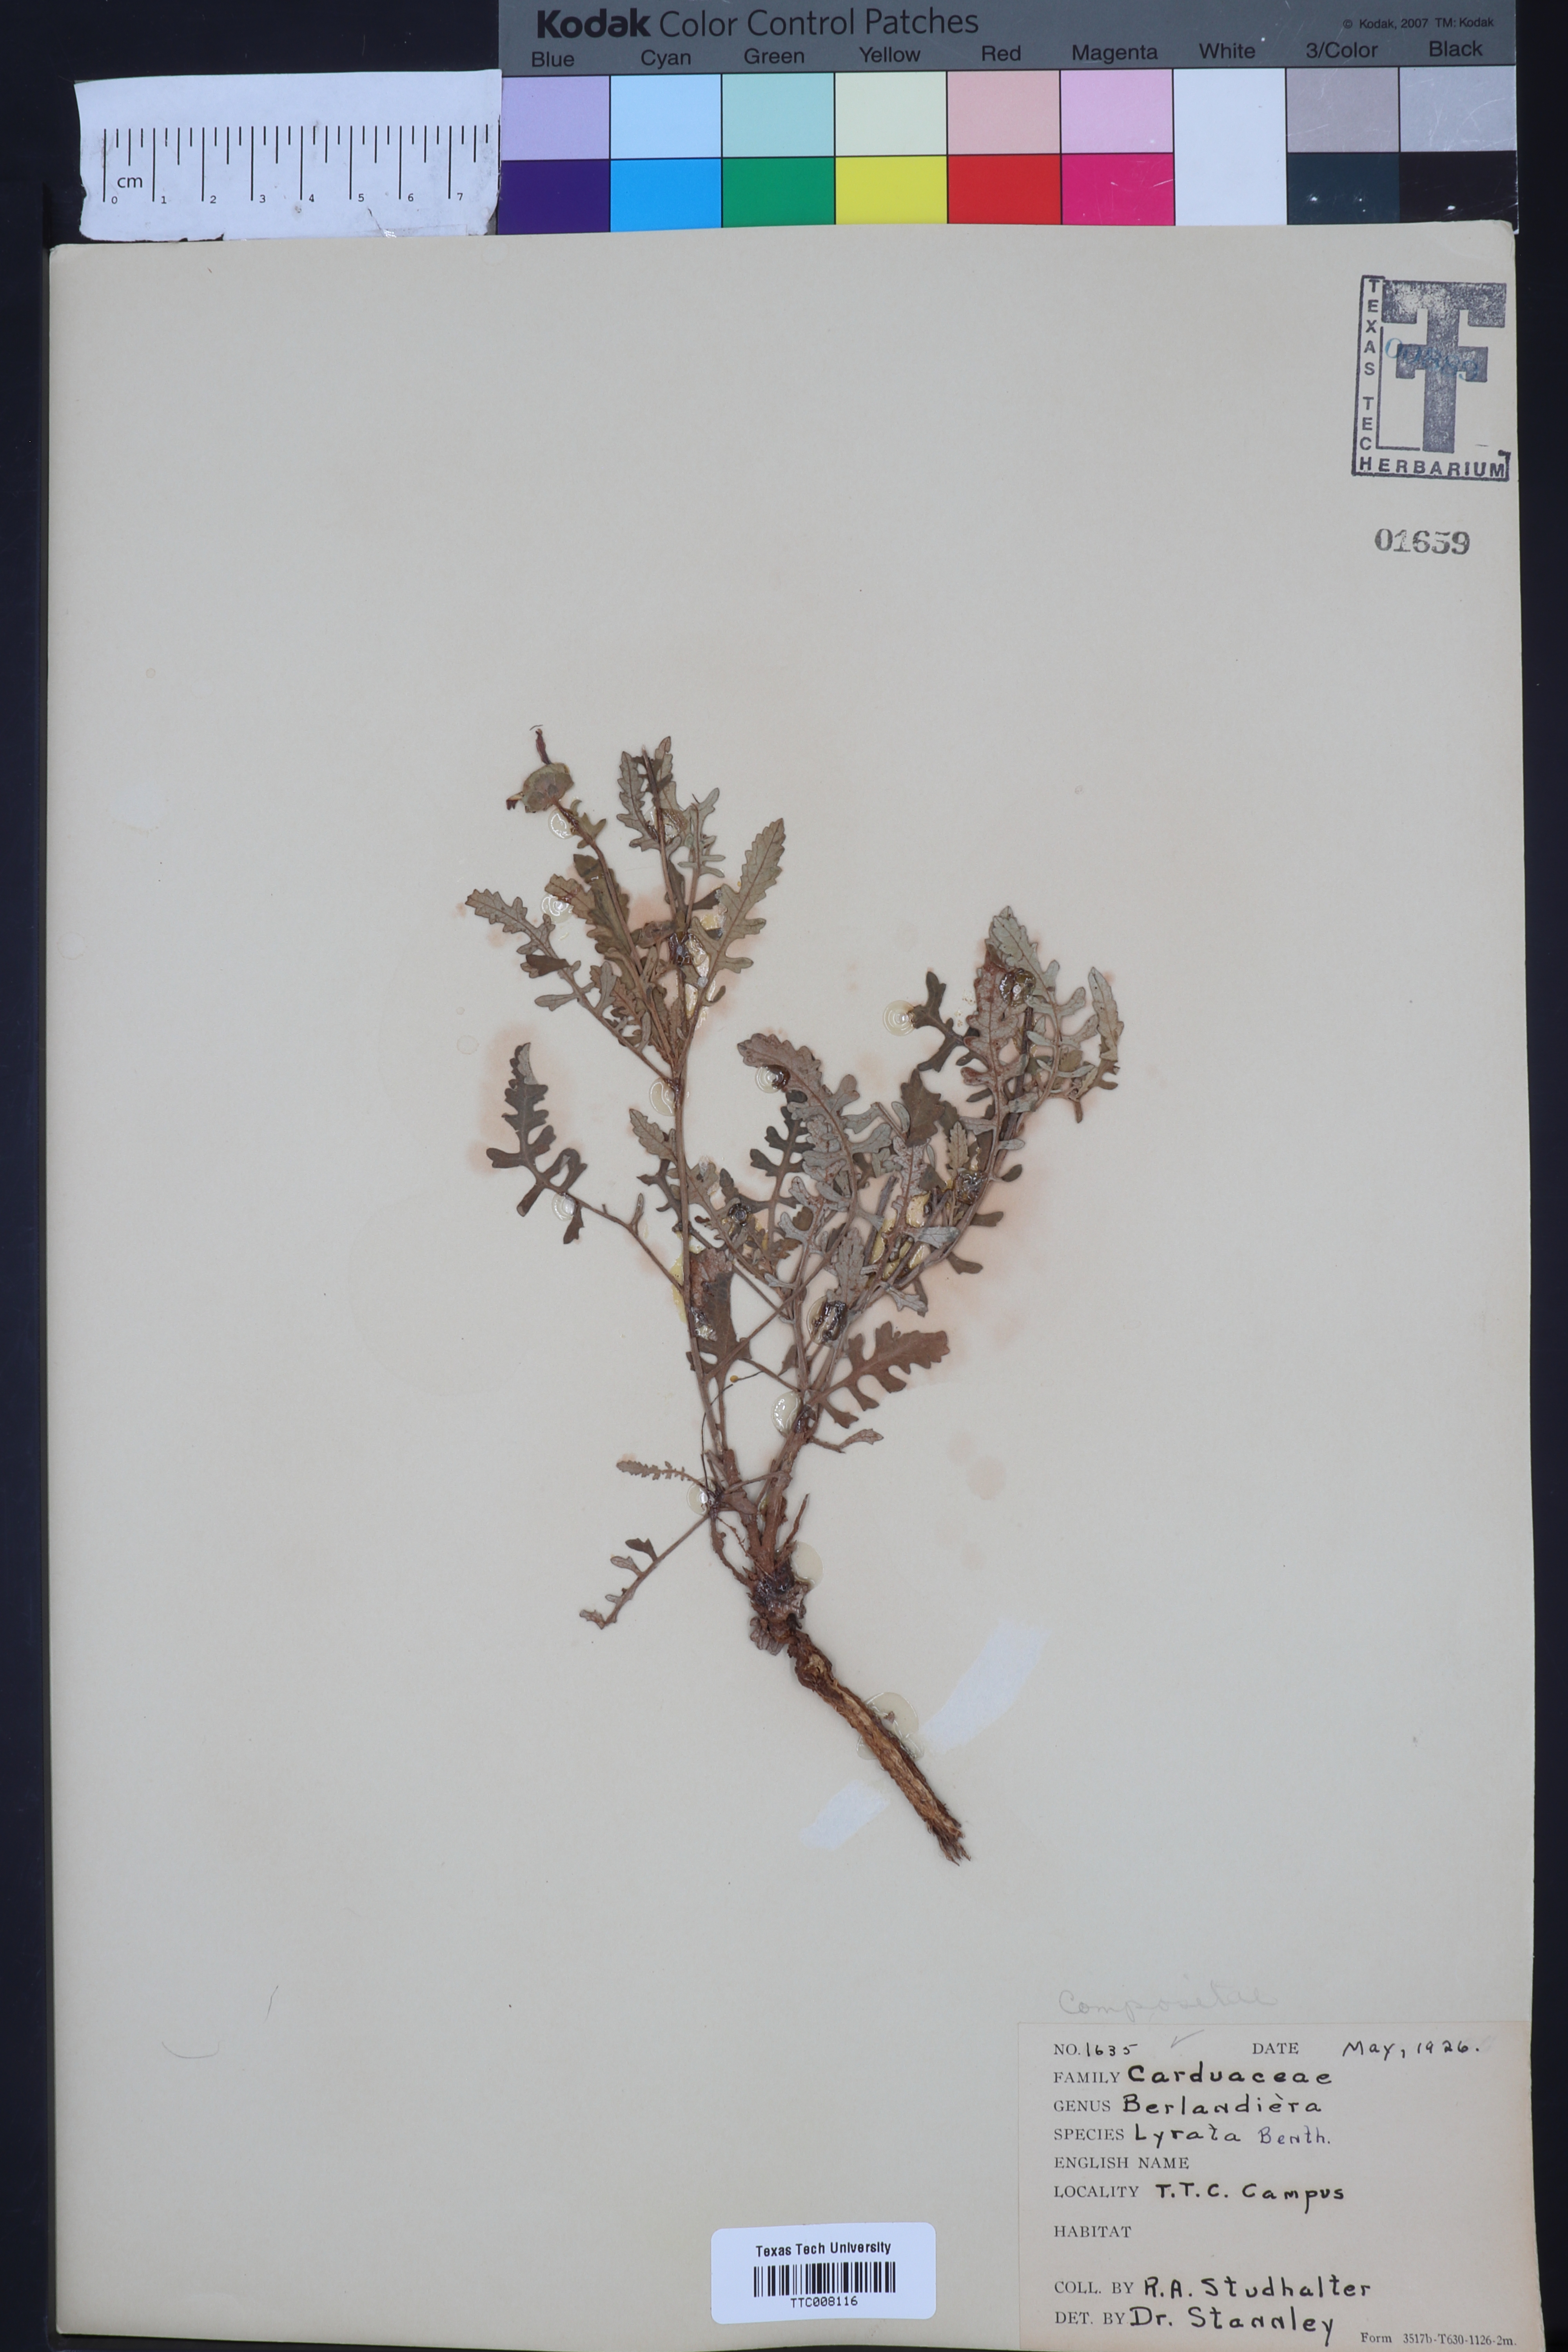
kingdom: Plantae
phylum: Tracheophyta
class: Magnoliopsida
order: Asterales
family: Asteraceae
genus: Berlandiera
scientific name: Berlandiera lyrata
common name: Chocolate-flower
